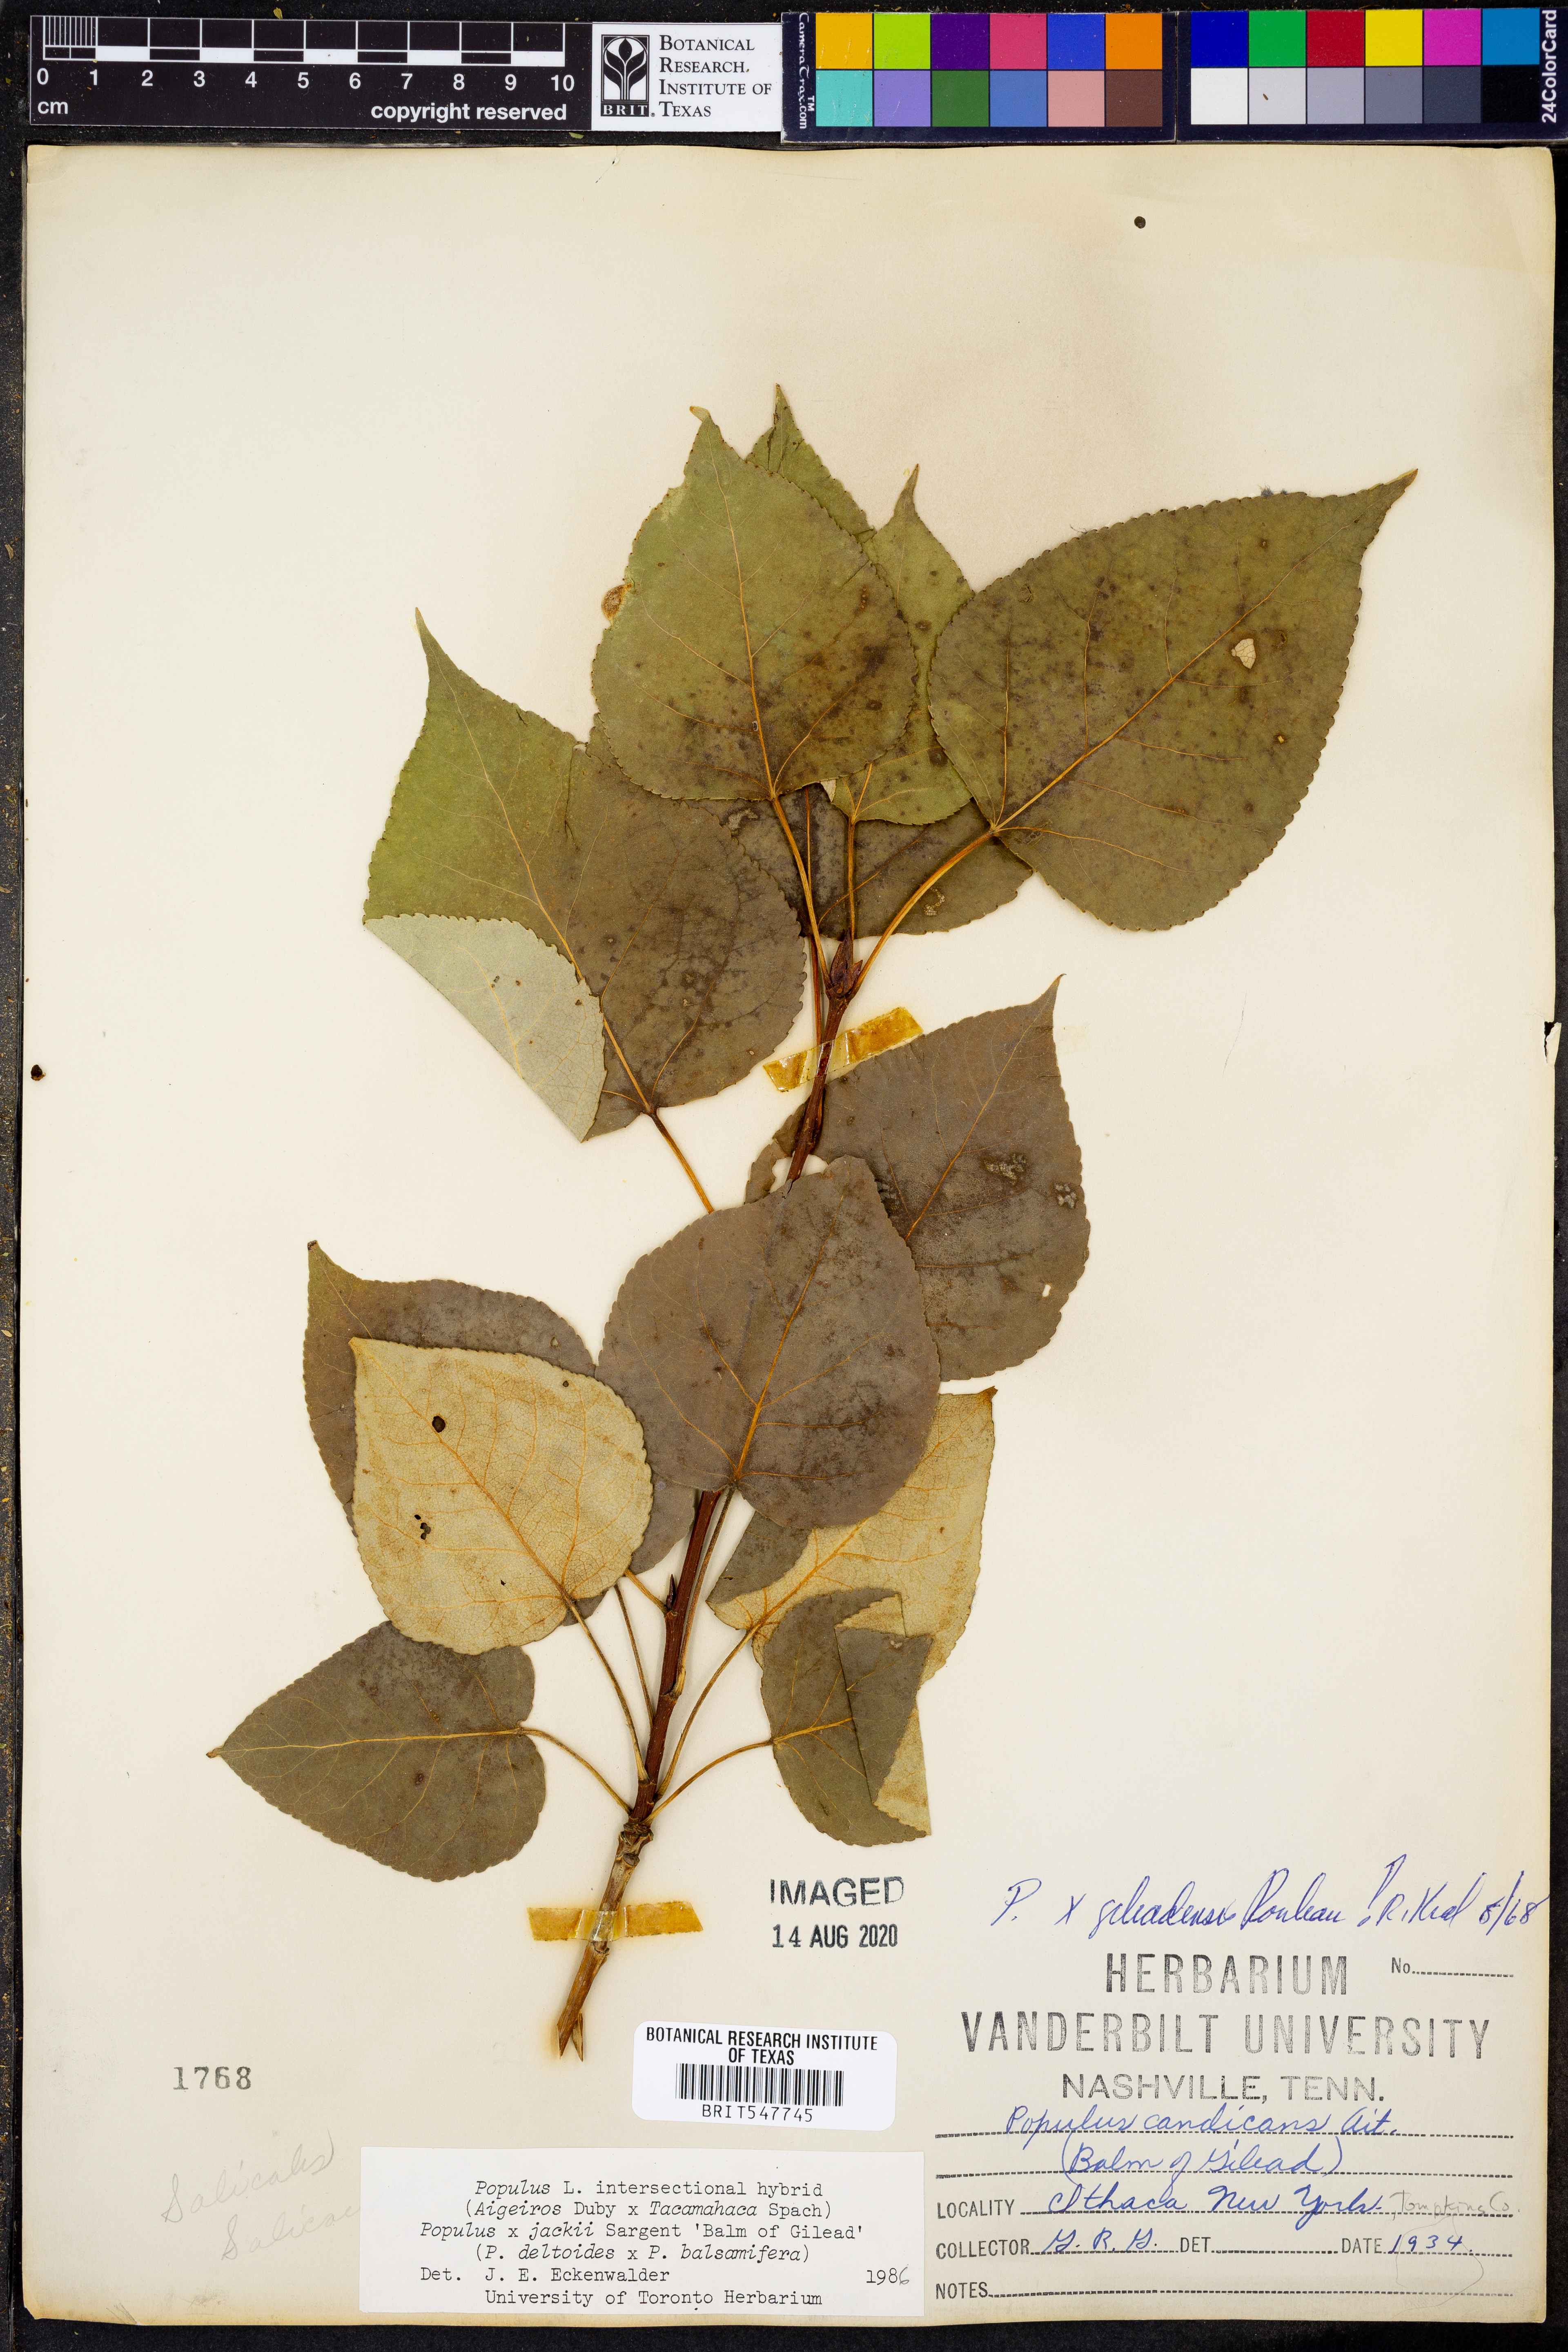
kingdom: Plantae
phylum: Tracheophyta
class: Magnoliopsida
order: Malpighiales
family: Salicaceae
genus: Populus
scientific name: Populus
